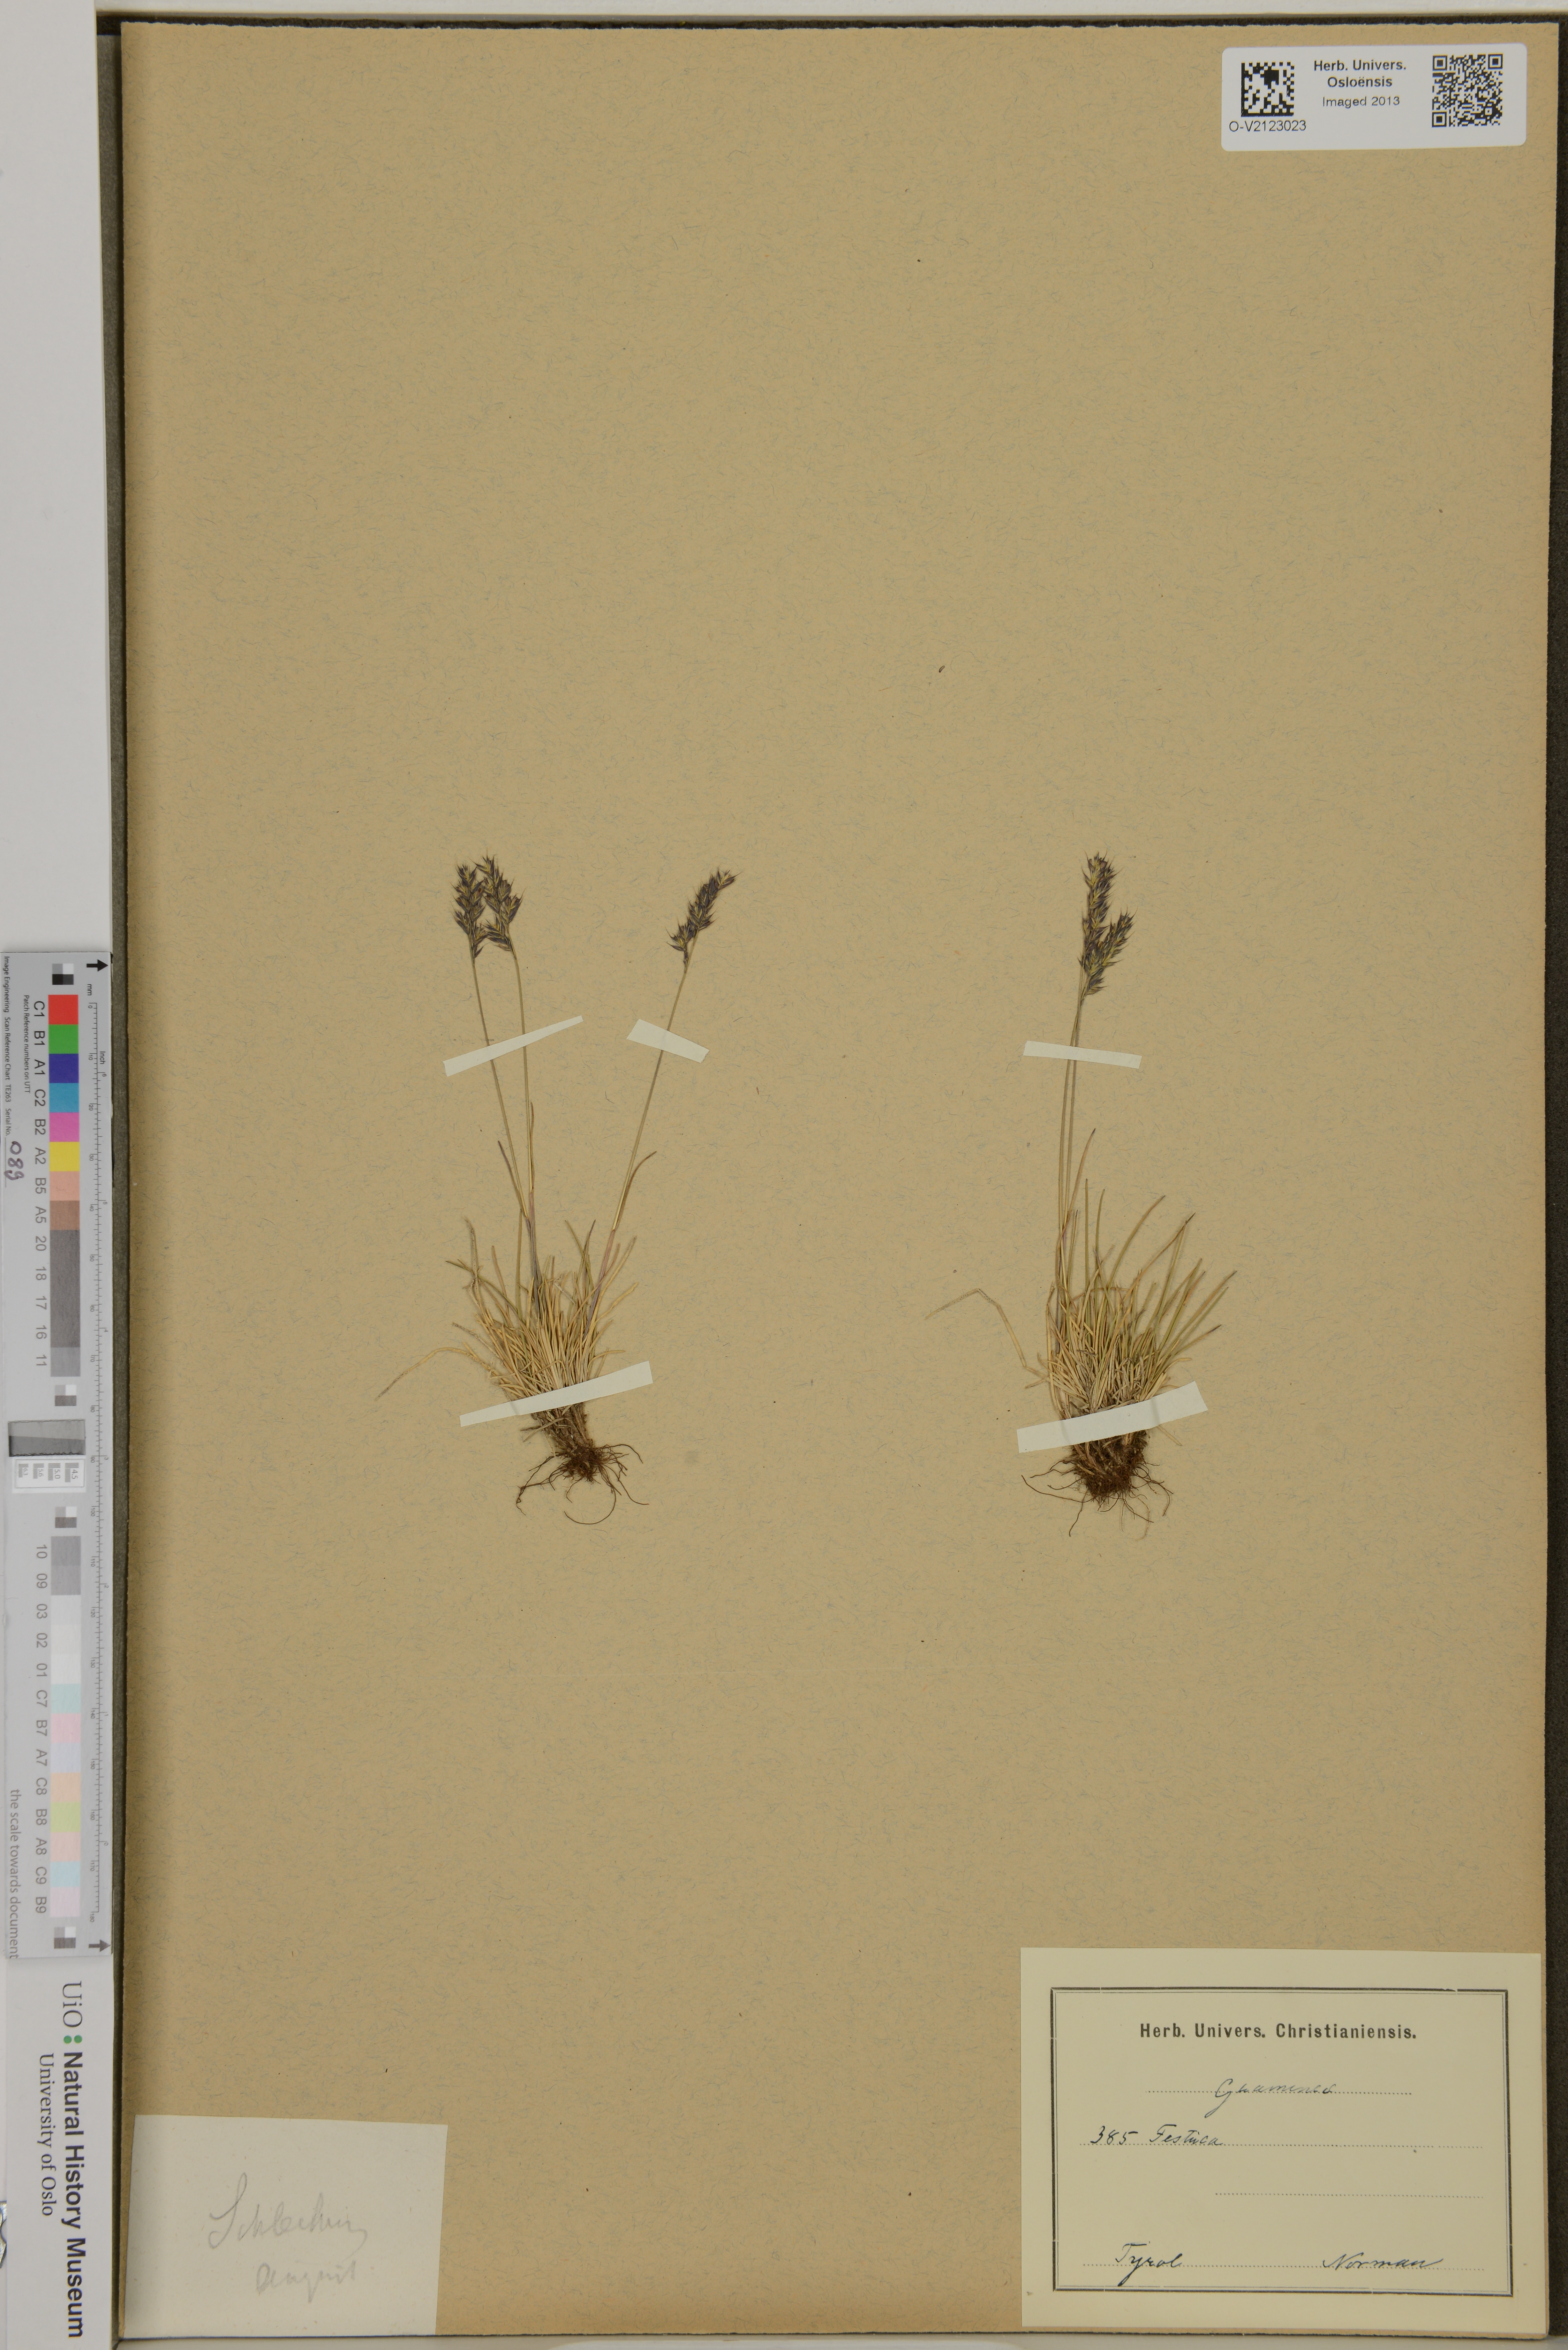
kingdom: Plantae
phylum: Tracheophyta
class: Liliopsida
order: Poales
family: Poaceae
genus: Festuca
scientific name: Festuca
